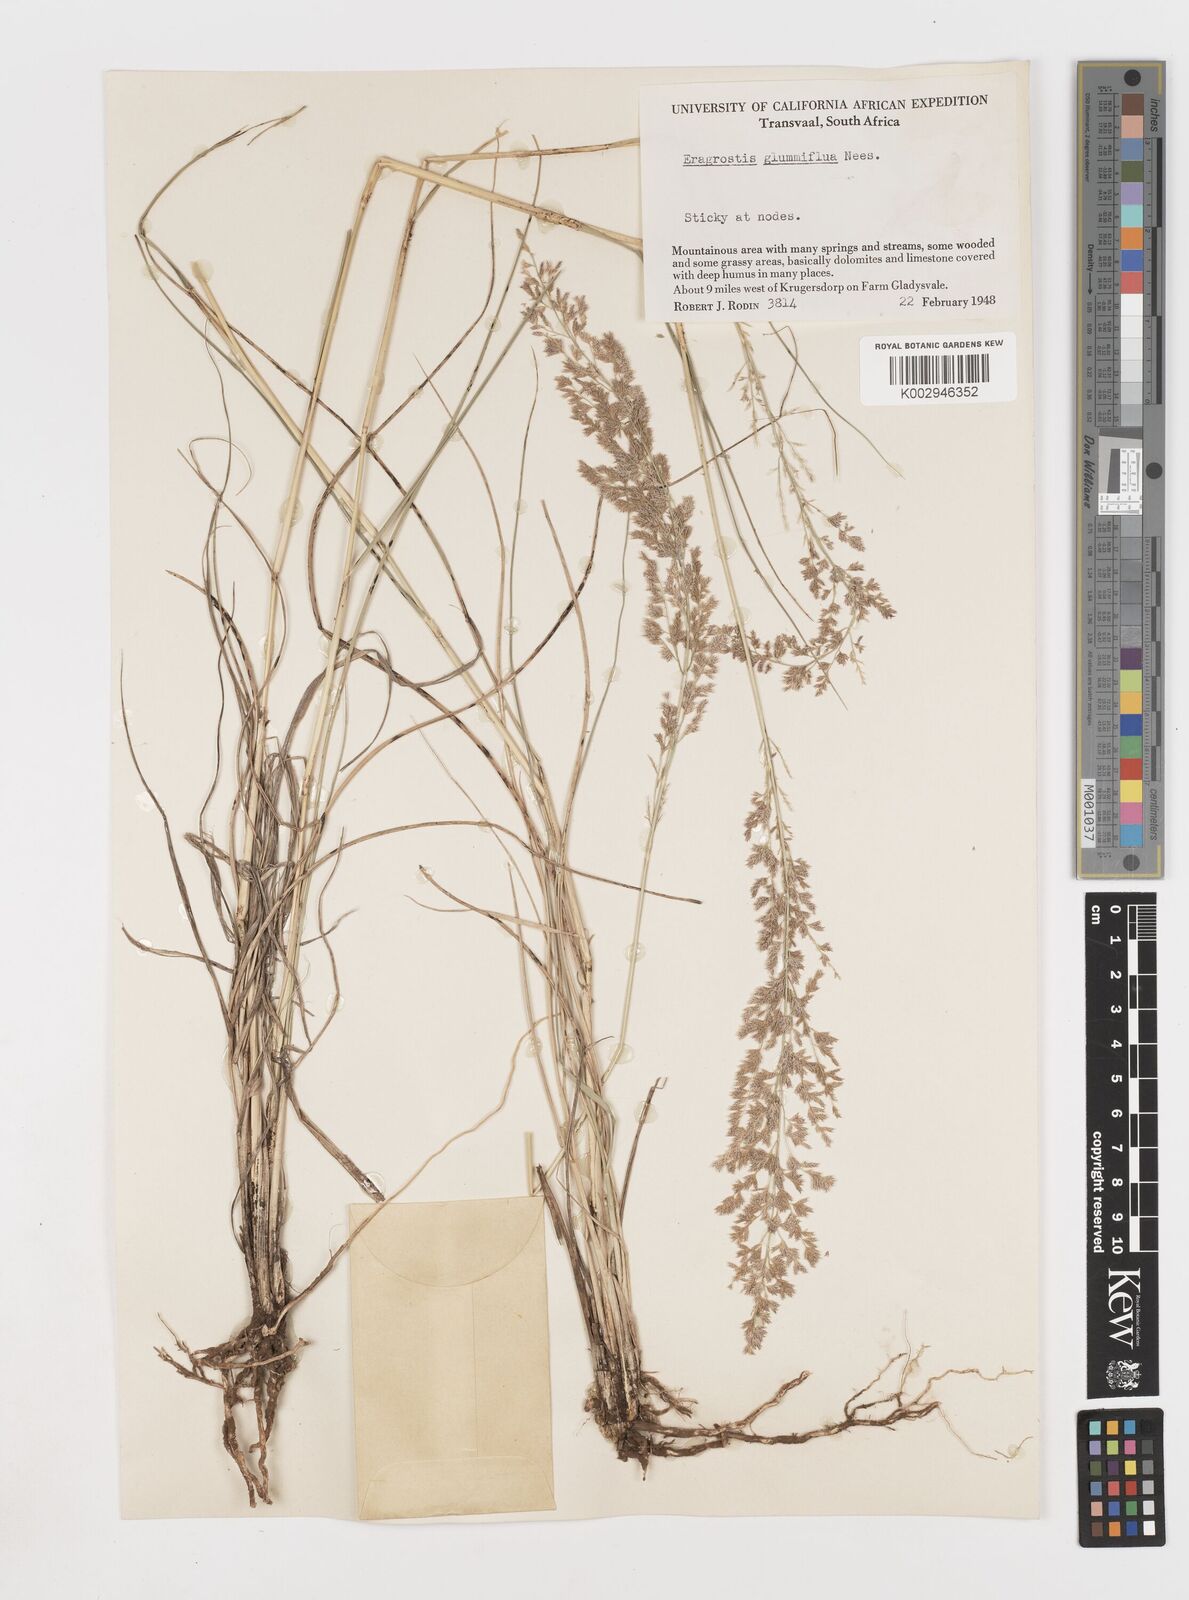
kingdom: Plantae
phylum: Tracheophyta
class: Liliopsida
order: Poales
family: Poaceae
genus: Eragrostis
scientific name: Eragrostis gummiflua
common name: Gum grass
